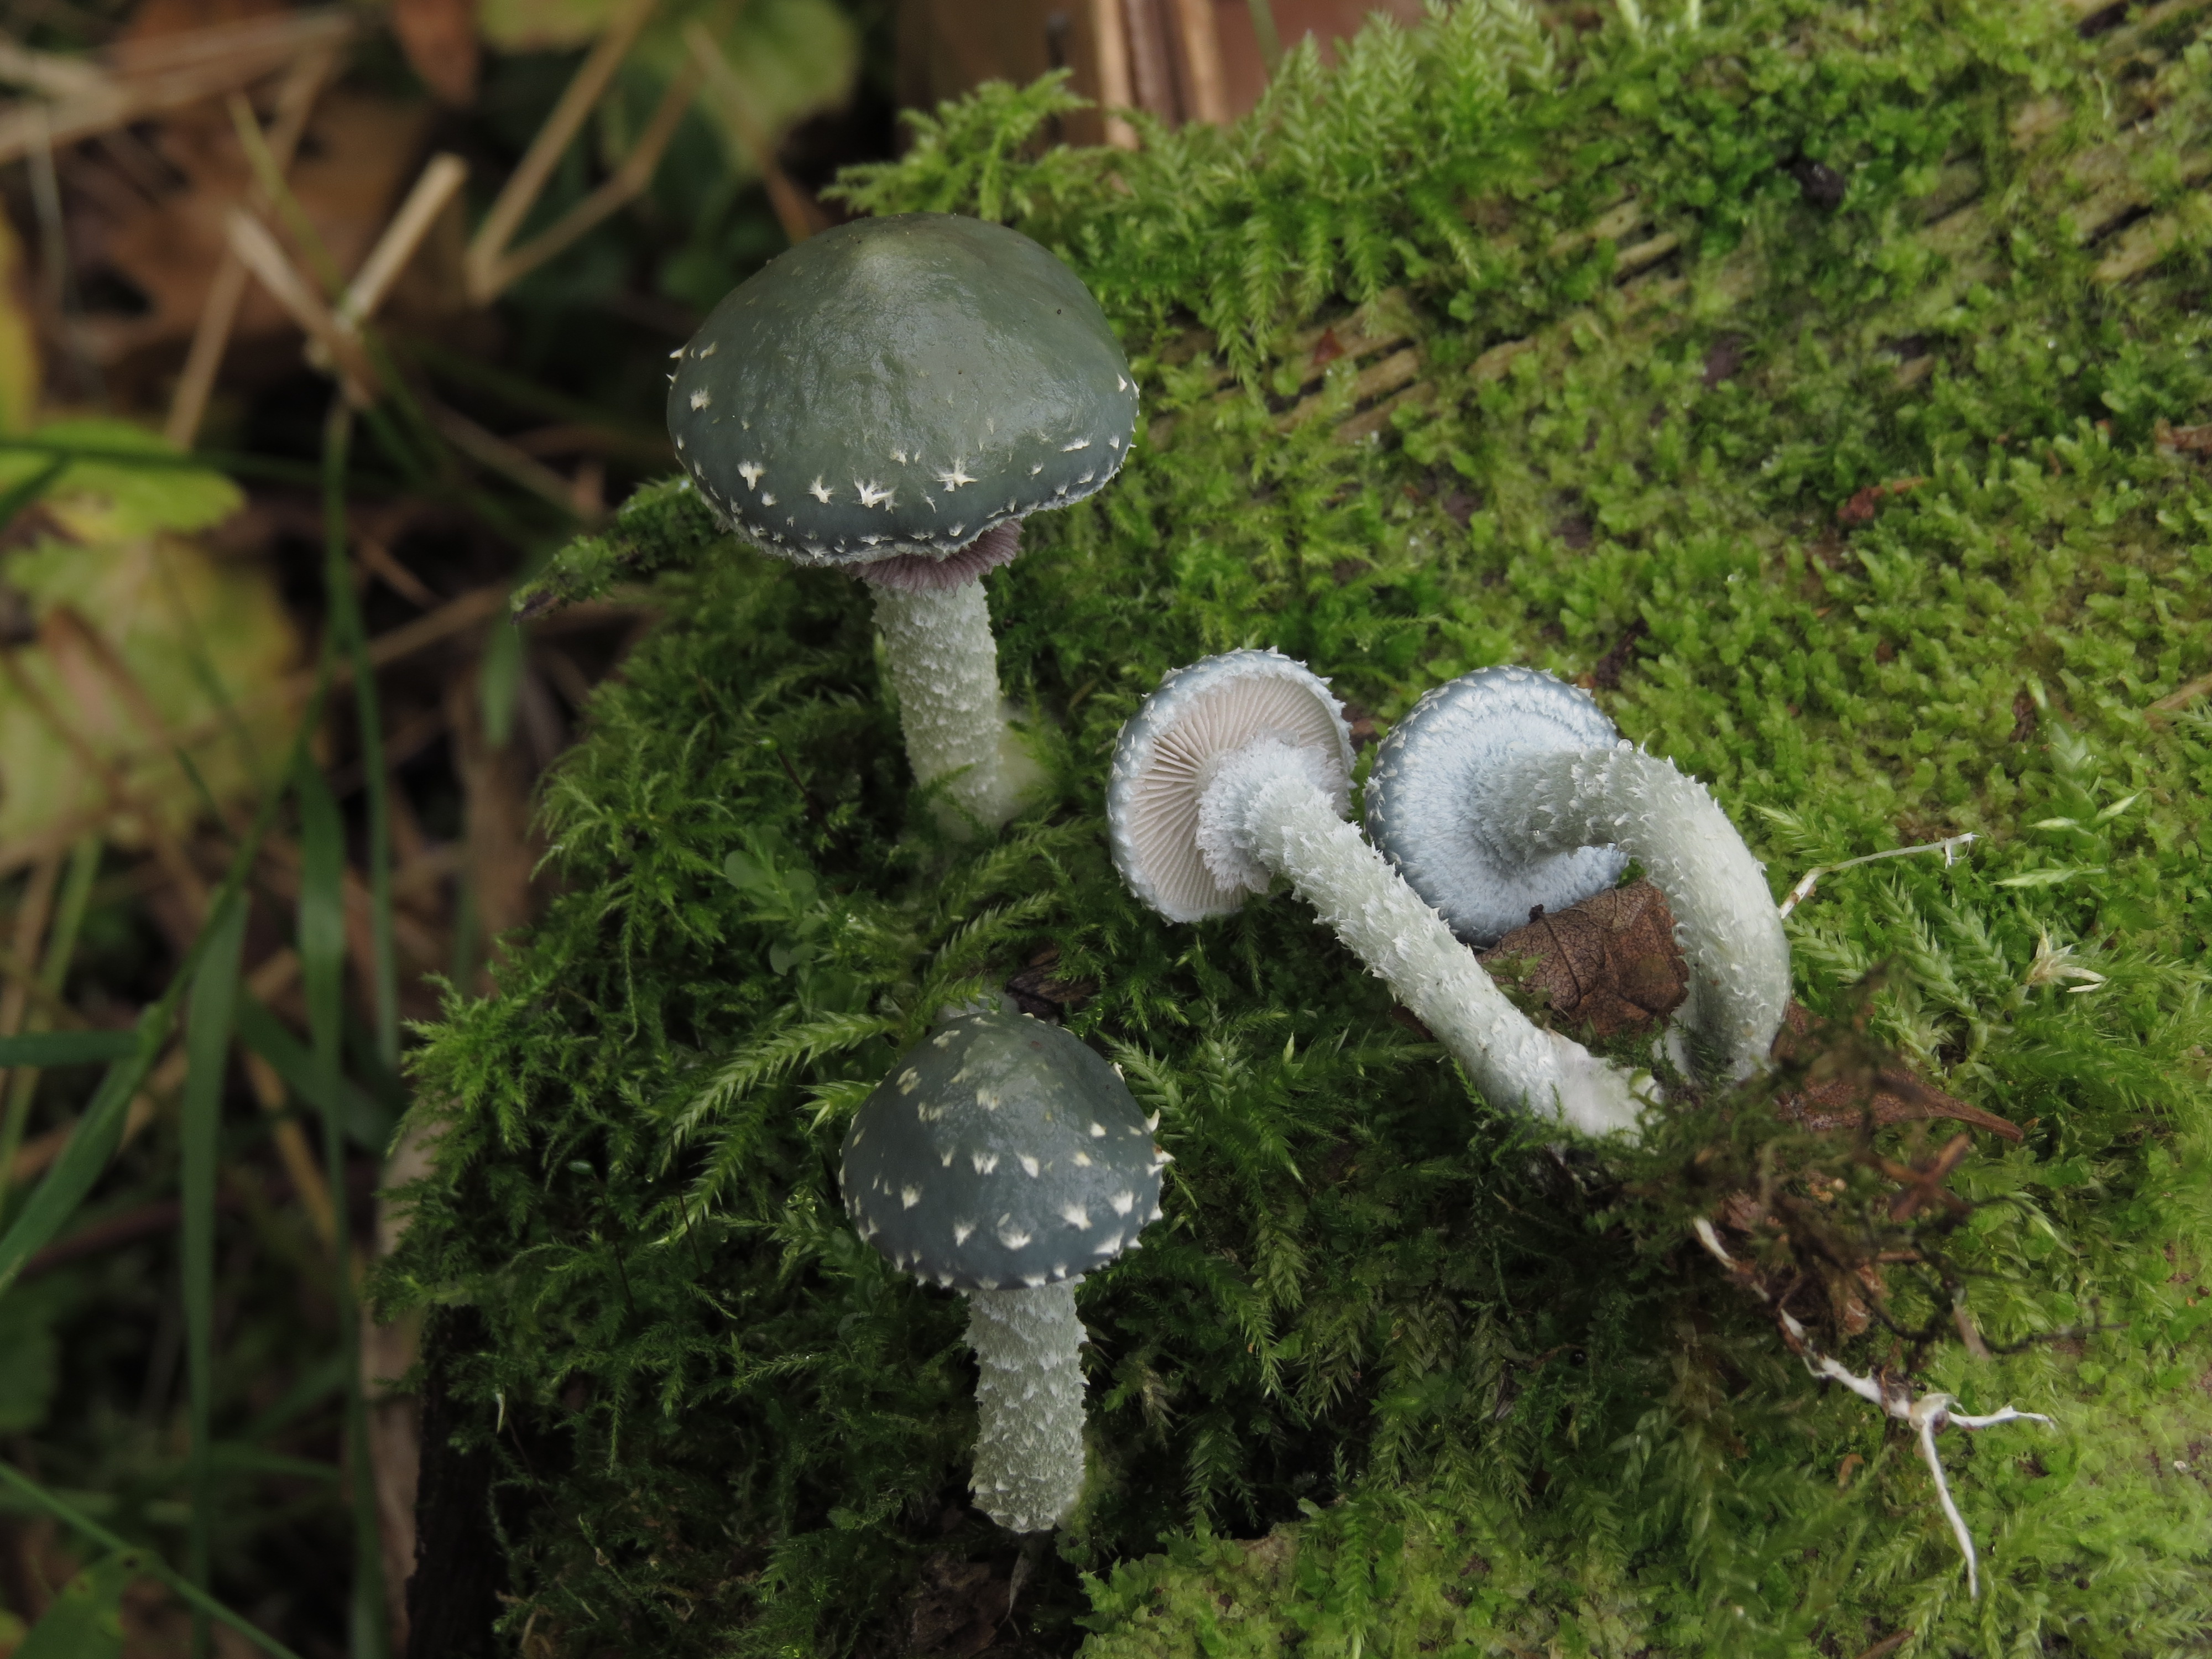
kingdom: Fungi
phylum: Basidiomycota
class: Agaricomycetes
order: Agaricales
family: Strophariaceae
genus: Stropharia
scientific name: Stropharia aeruginosa
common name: Verdigris roundhead
